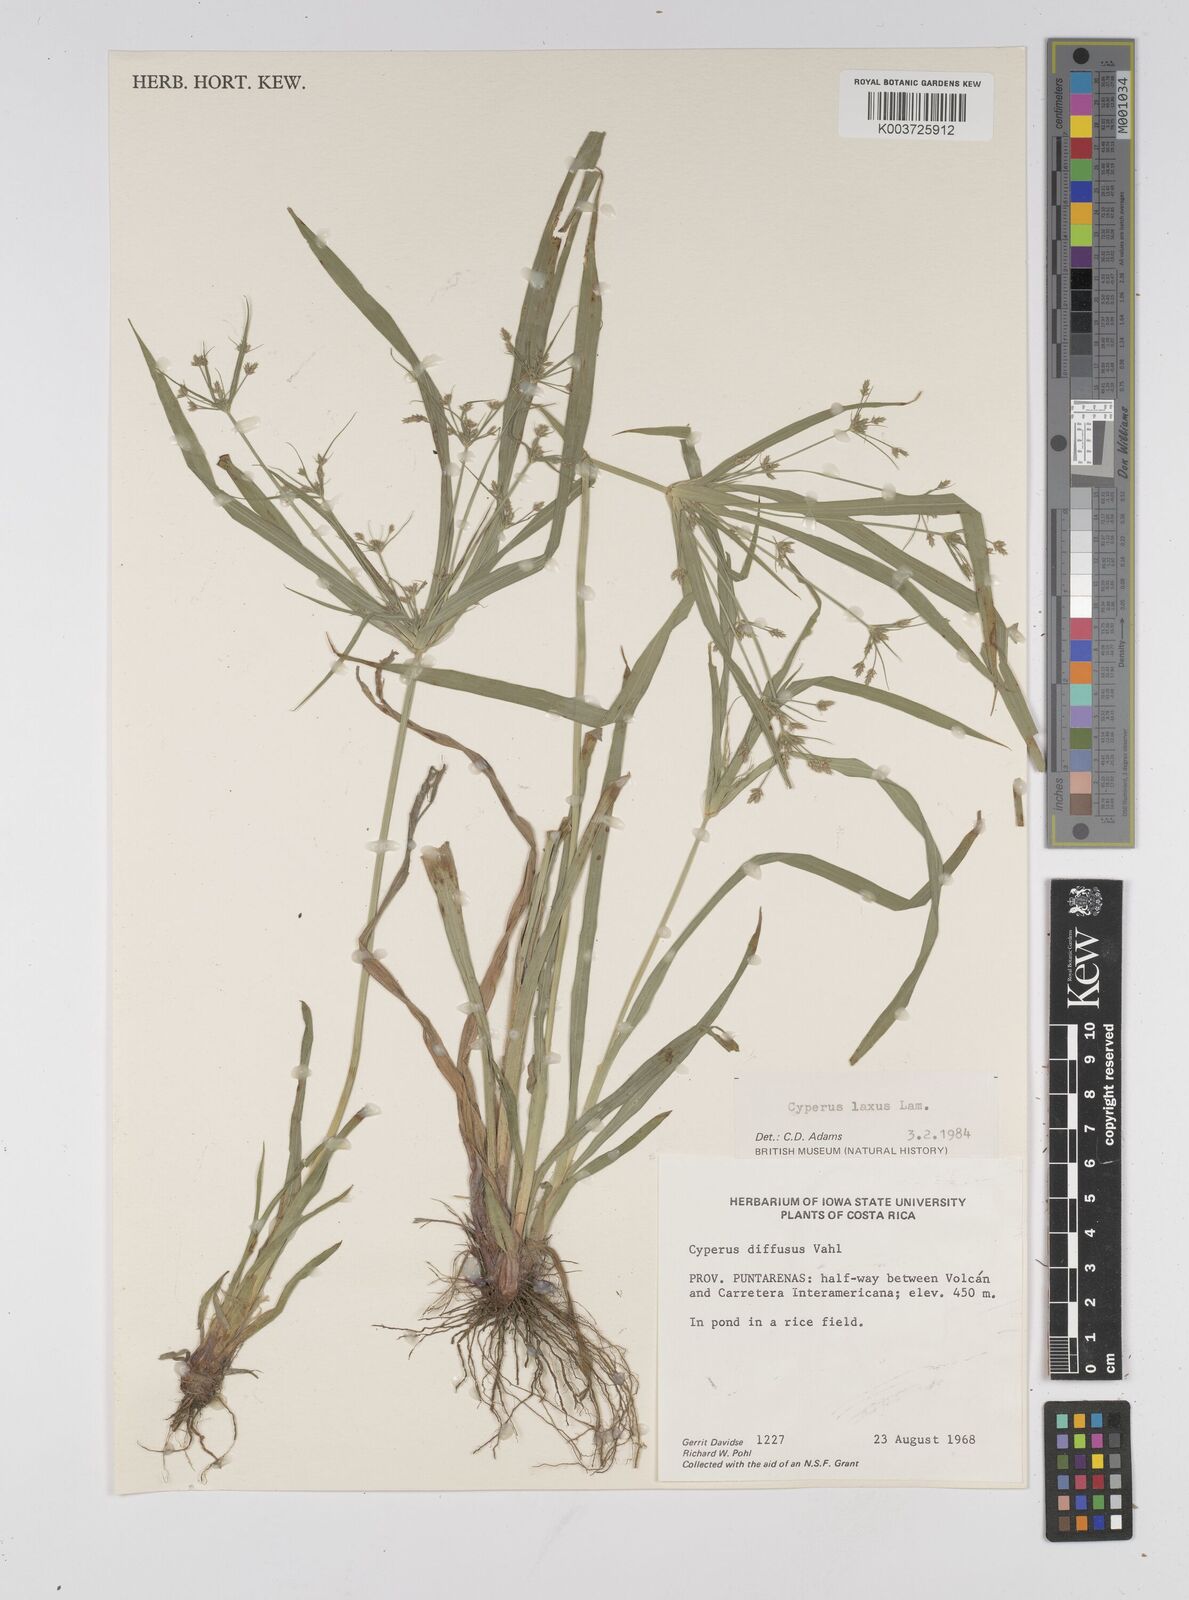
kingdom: Plantae
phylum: Tracheophyta
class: Liliopsida
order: Poales
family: Cyperaceae
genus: Cyperus
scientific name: Cyperus chalaranthus
